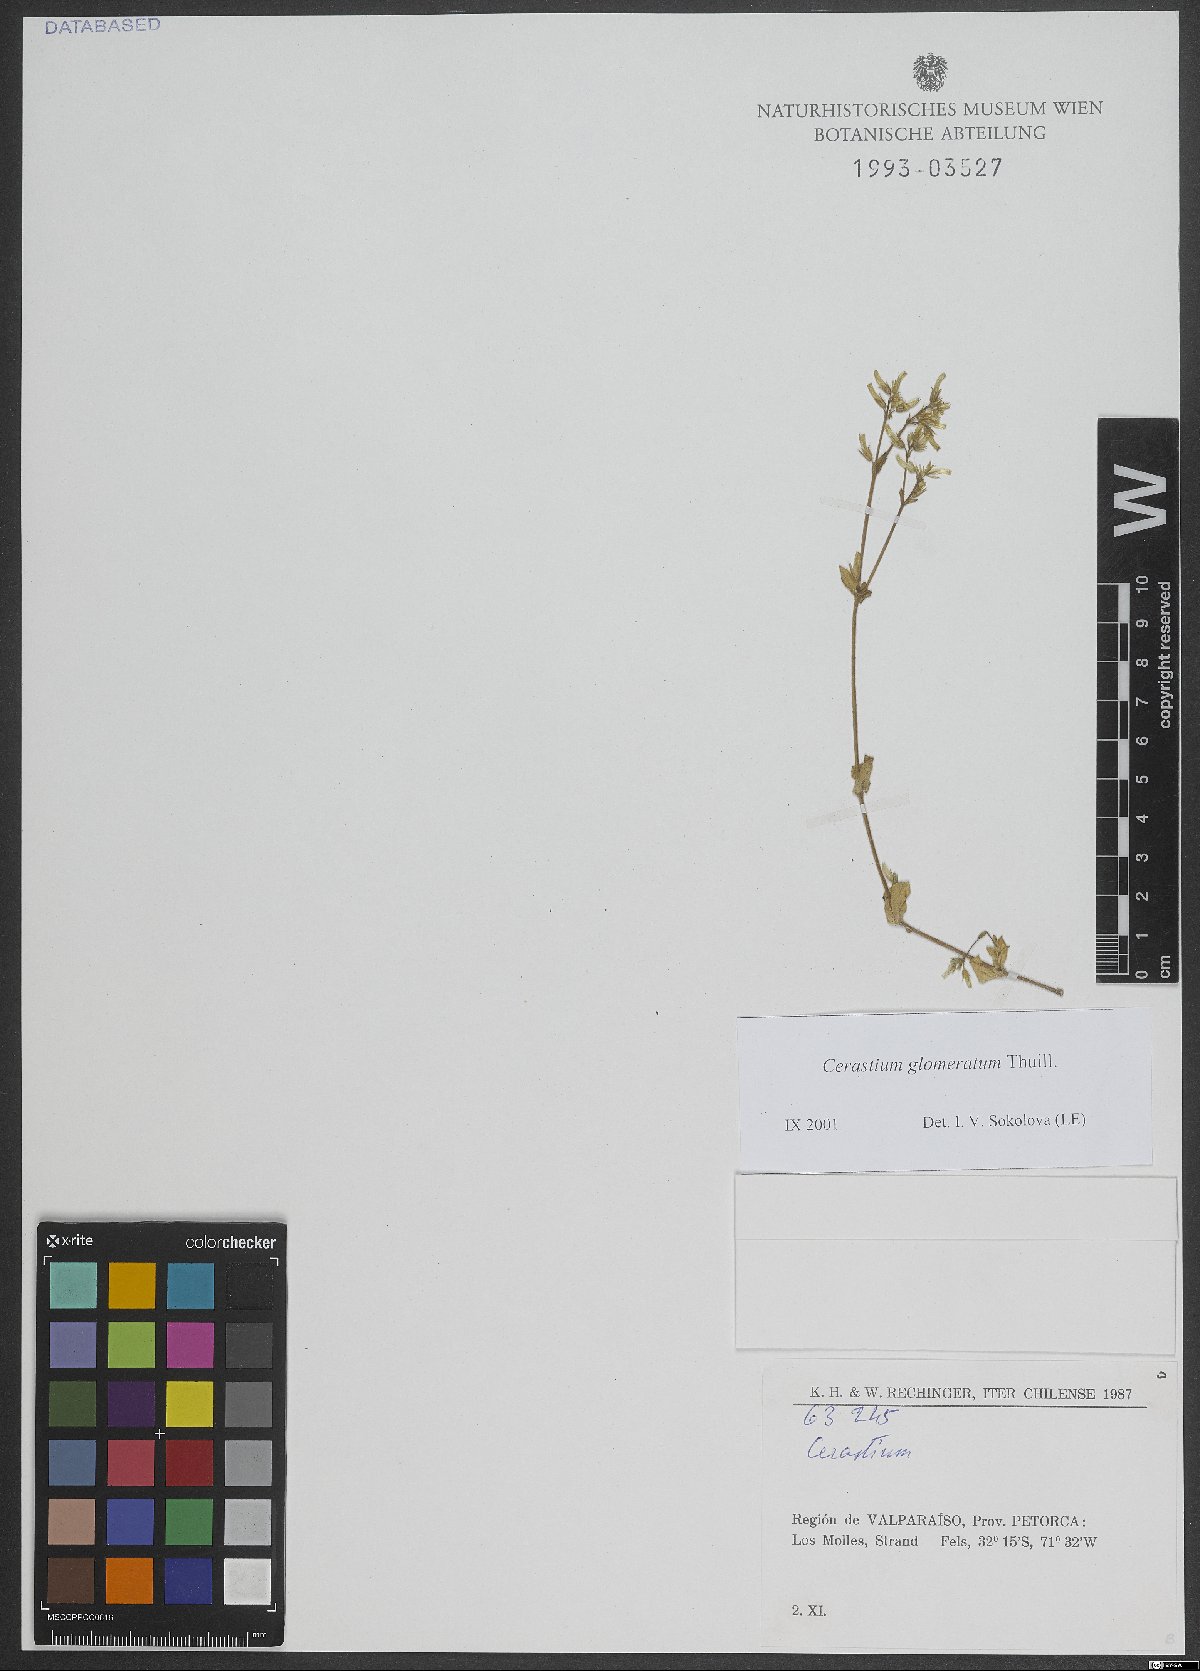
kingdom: Plantae
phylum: Tracheophyta
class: Magnoliopsida
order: Caryophyllales
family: Caryophyllaceae
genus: Cerastium
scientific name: Cerastium glomeratum
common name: Sticky chickweed
